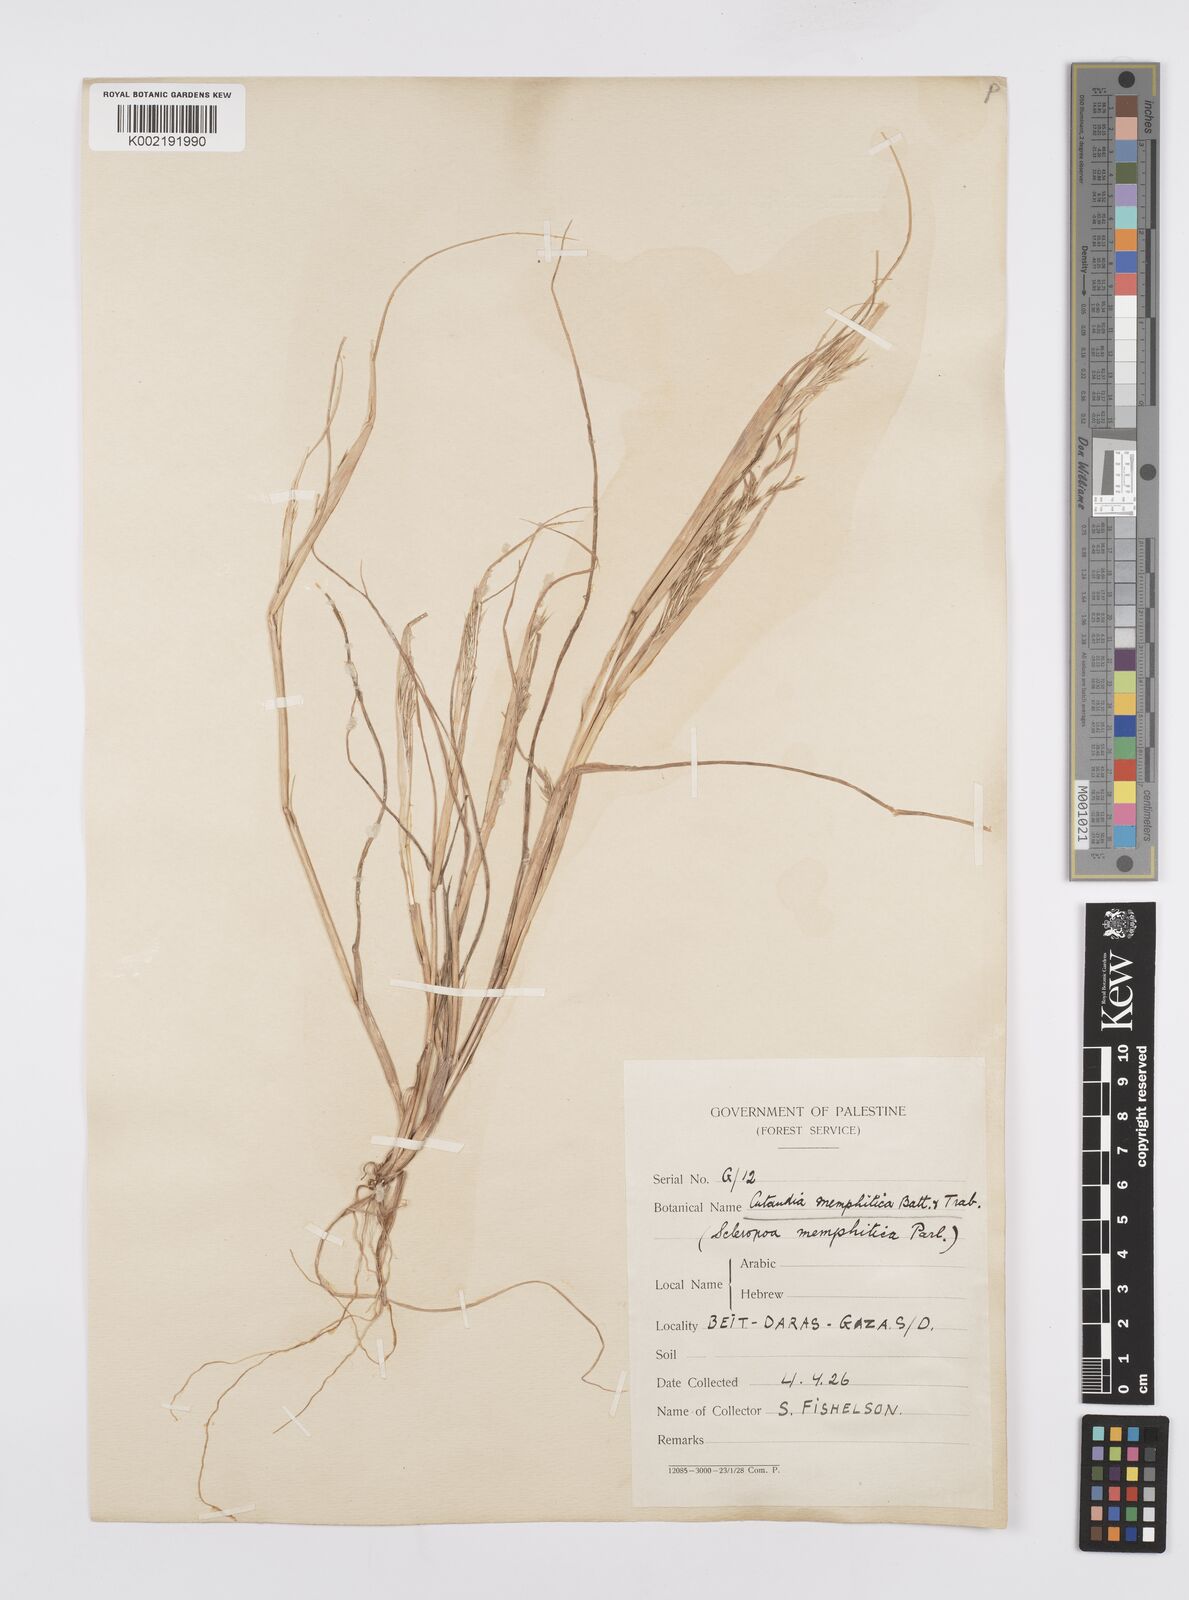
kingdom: Plantae
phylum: Tracheophyta
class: Liliopsida
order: Poales
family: Poaceae
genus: Cutandia
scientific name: Cutandia memphitica
